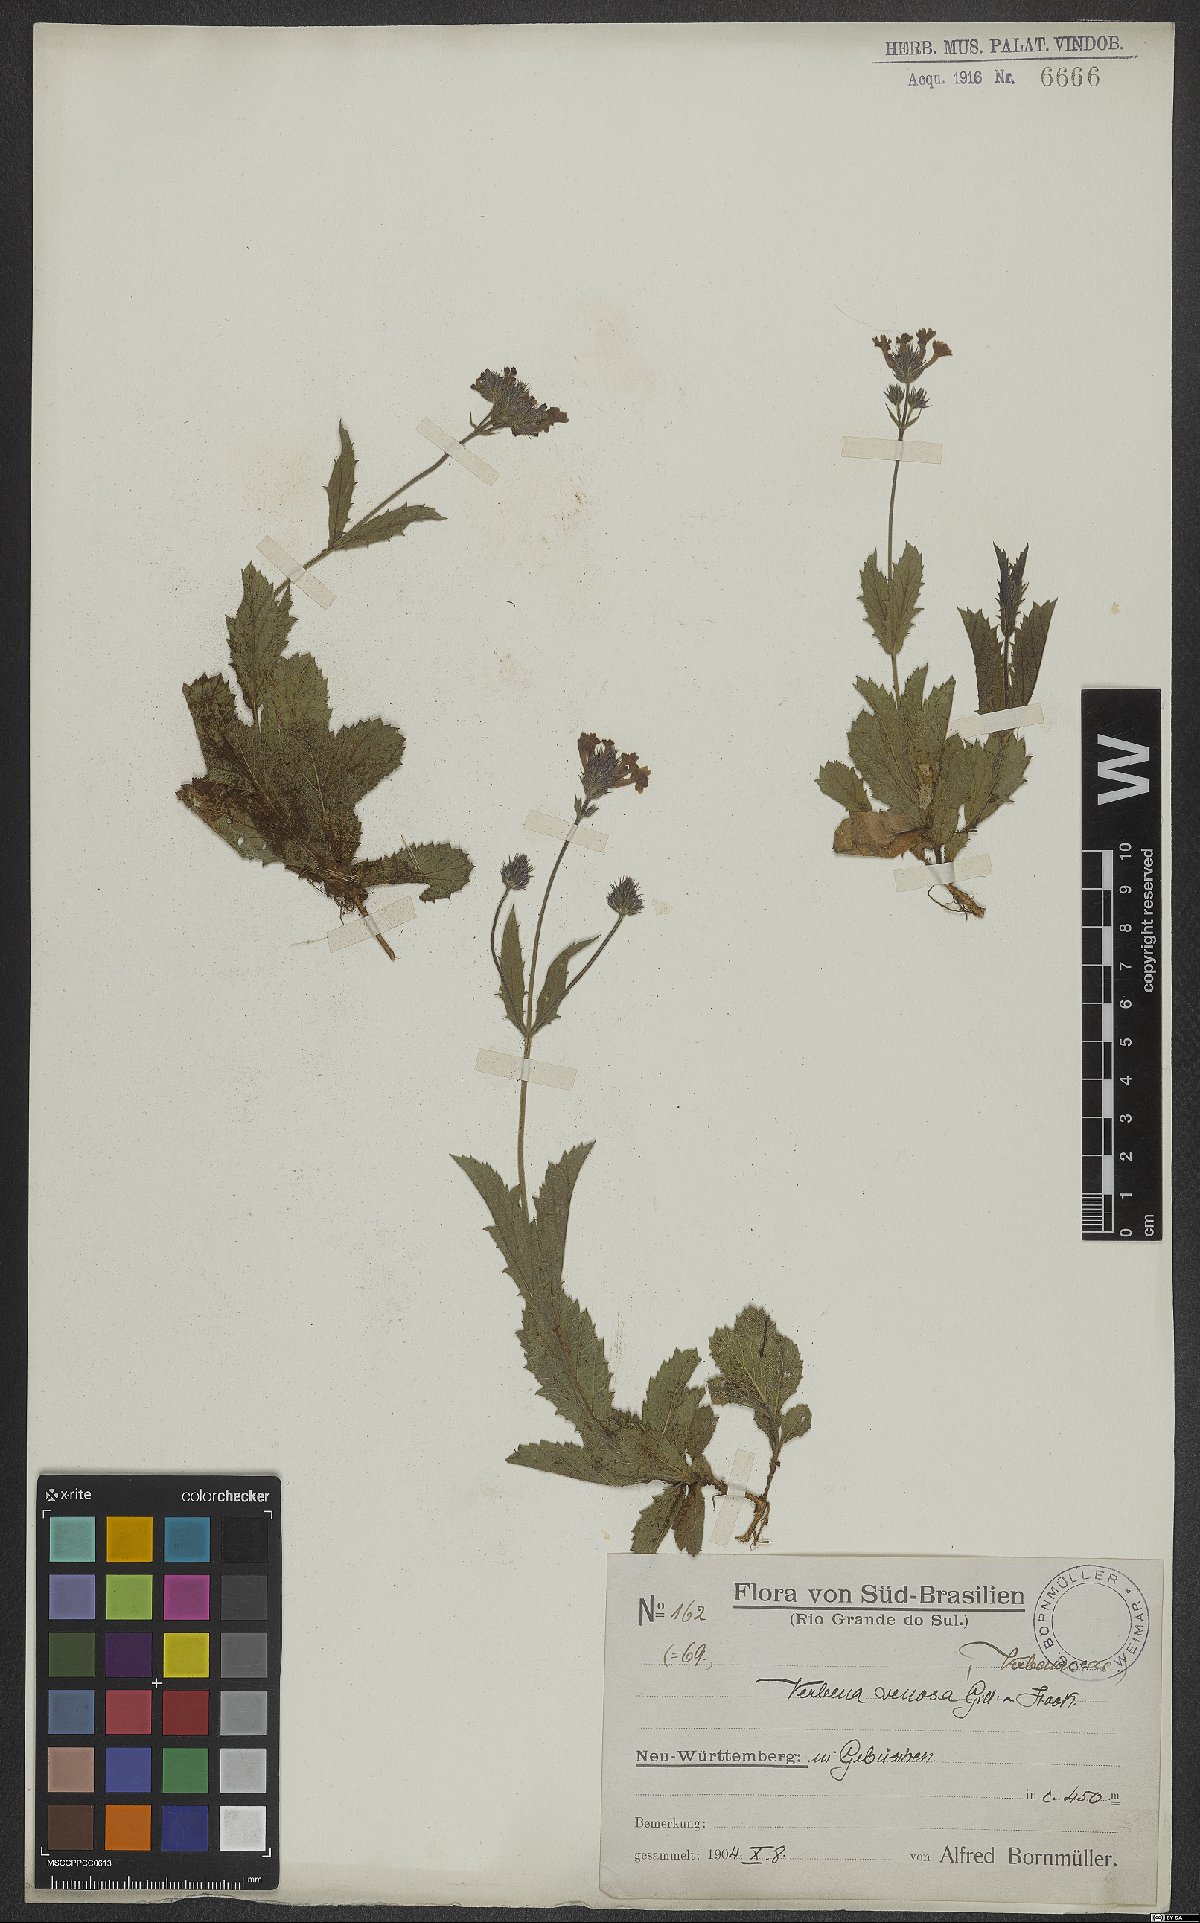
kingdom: Plantae
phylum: Tracheophyta
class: Magnoliopsida
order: Lamiales
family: Verbenaceae
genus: Verbena
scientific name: Verbena rigida
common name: Slender vervain
